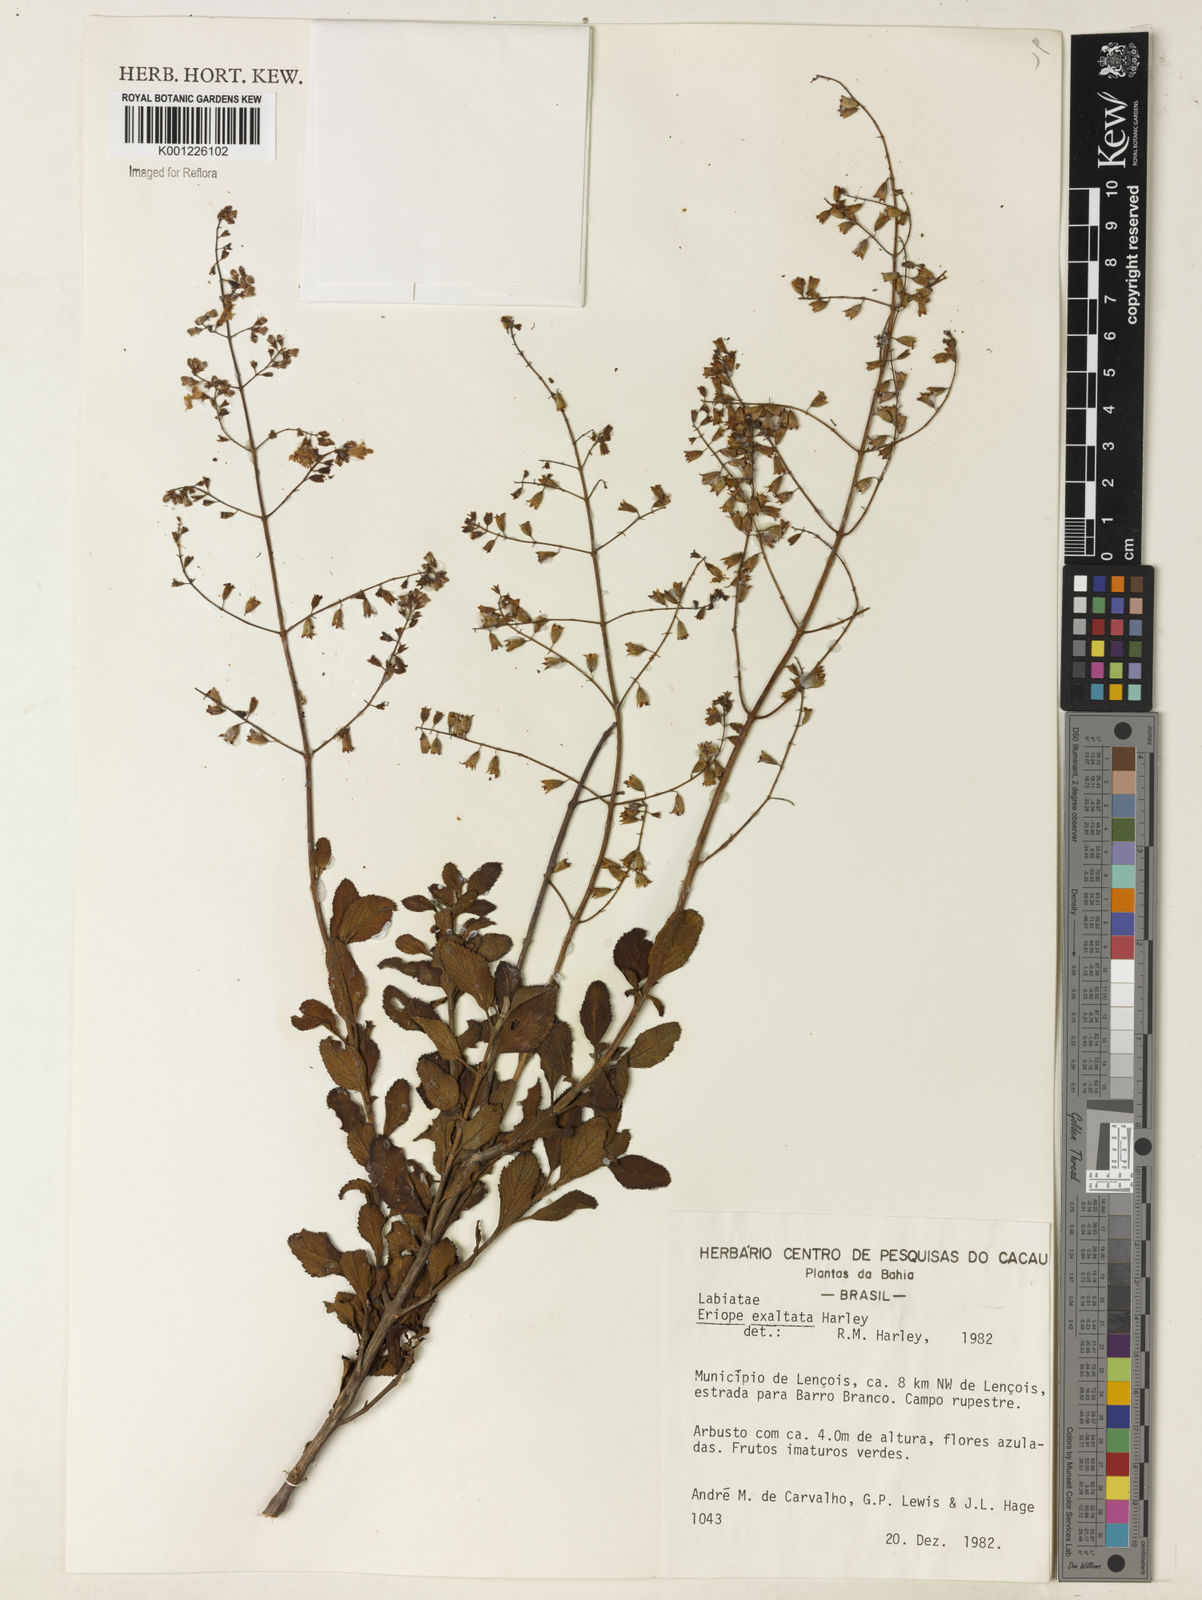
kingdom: Plantae
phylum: Tracheophyta
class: Magnoliopsida
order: Lamiales
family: Lamiaceae
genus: Eriope
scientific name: Eriope exaltata
